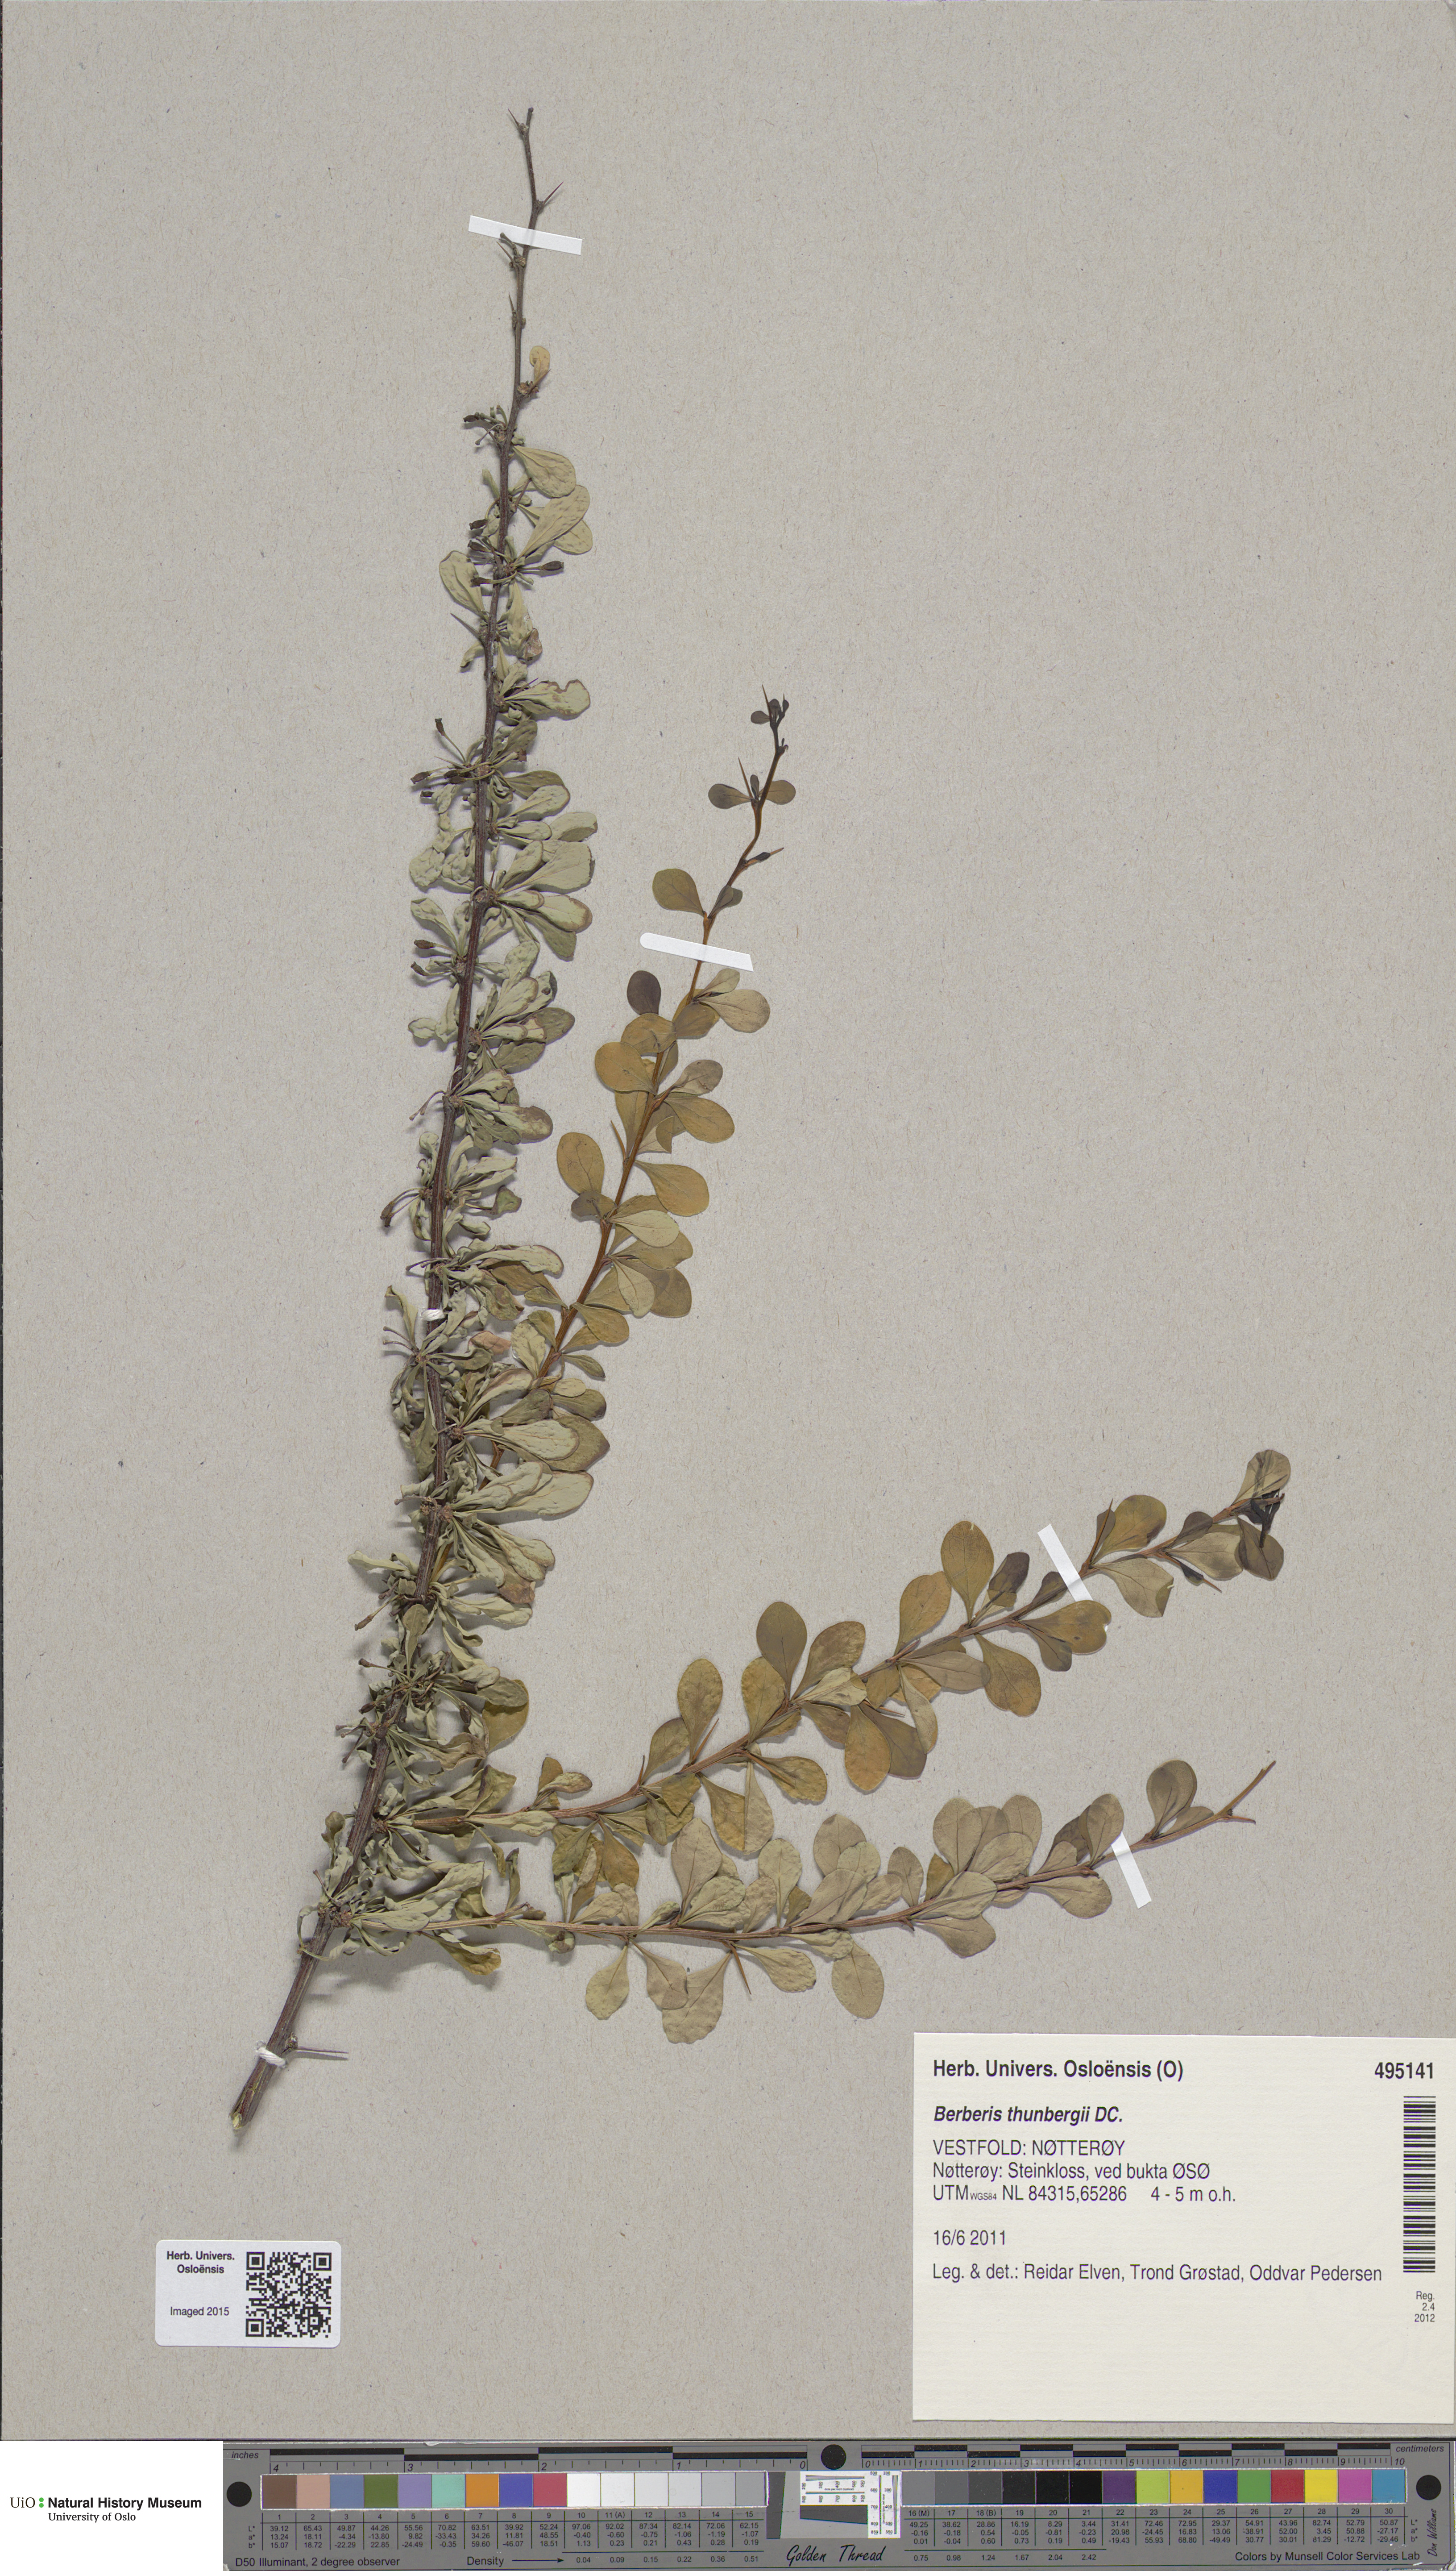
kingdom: Plantae
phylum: Tracheophyta
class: Magnoliopsida
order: Ranunculales
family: Berberidaceae
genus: Berberis
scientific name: Berberis thunbergii
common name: Japanese barberry
